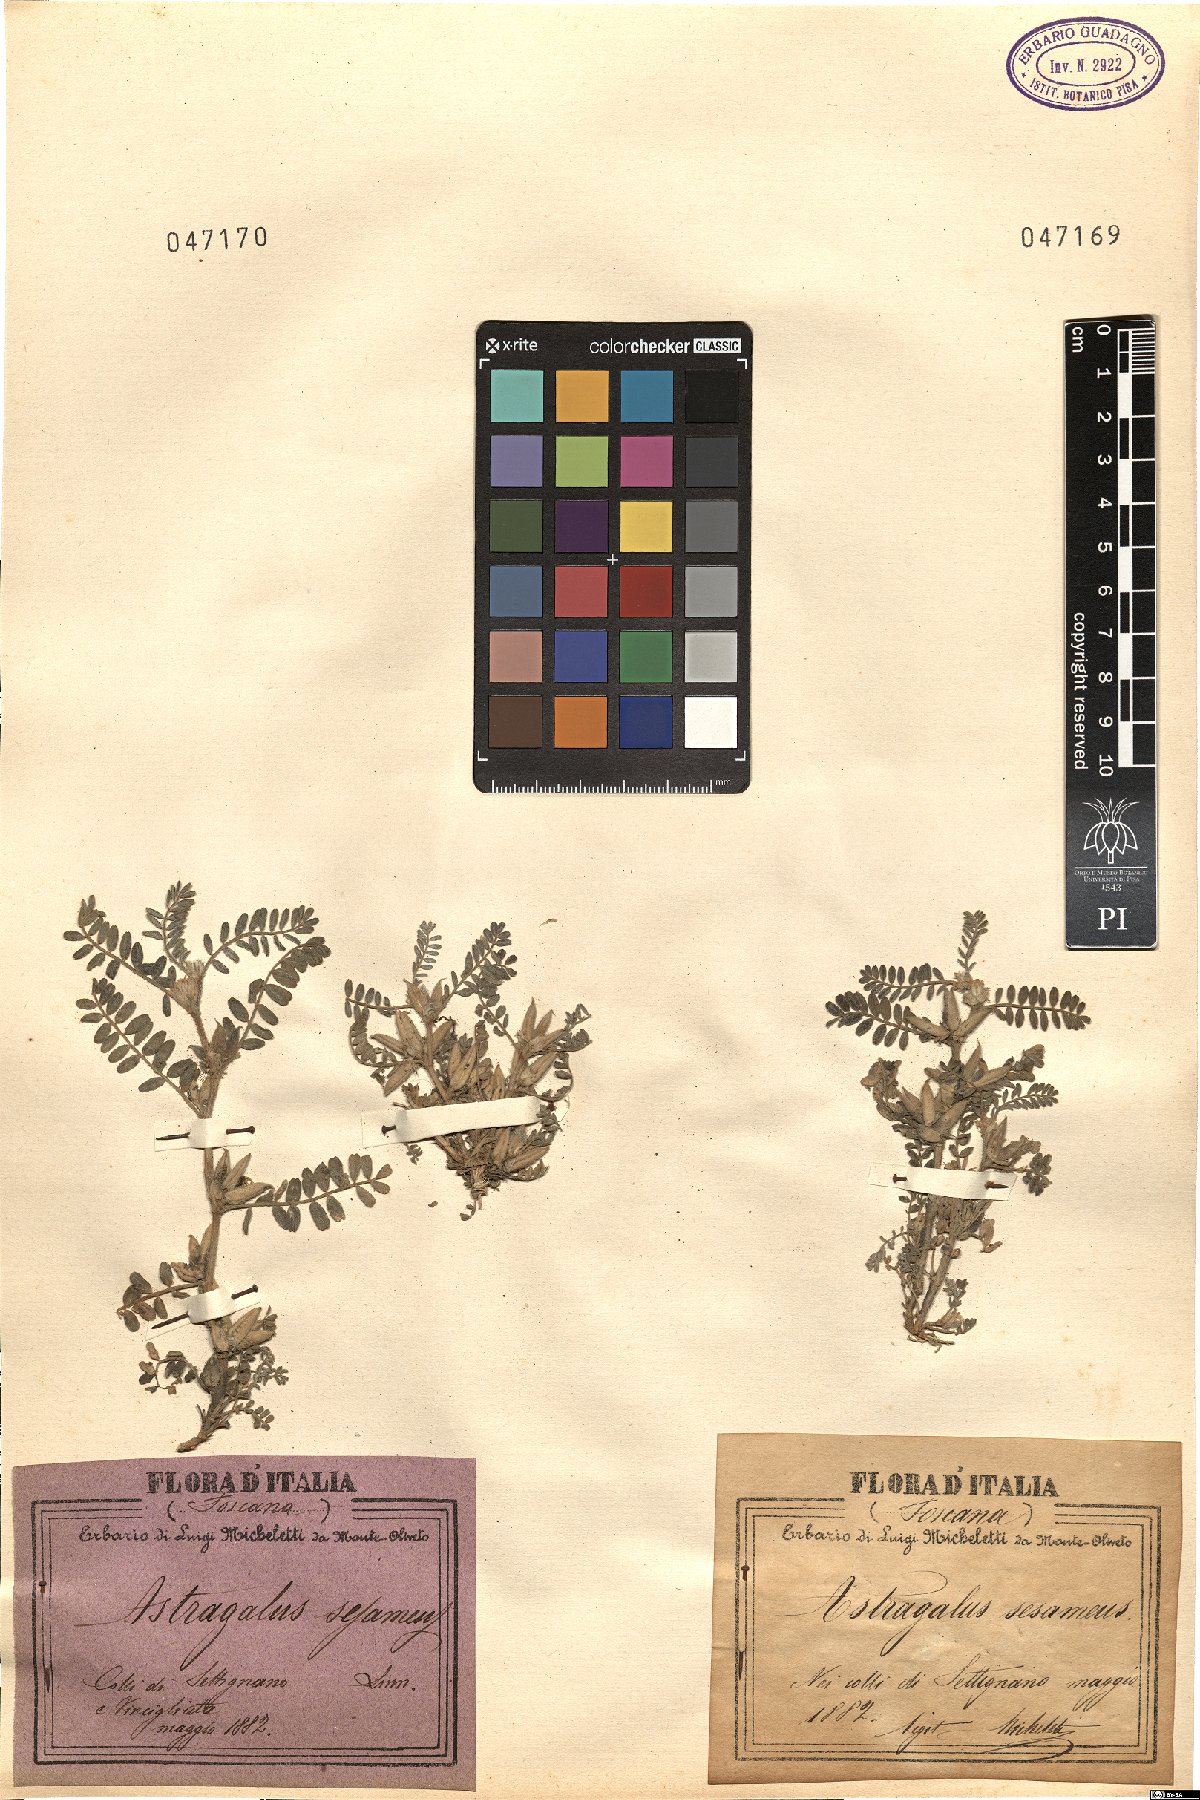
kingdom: Plantae
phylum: Tracheophyta
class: Magnoliopsida
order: Fabales
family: Fabaceae
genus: Astragalus
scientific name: Astragalus sesameus
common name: Purple milk-vetch
